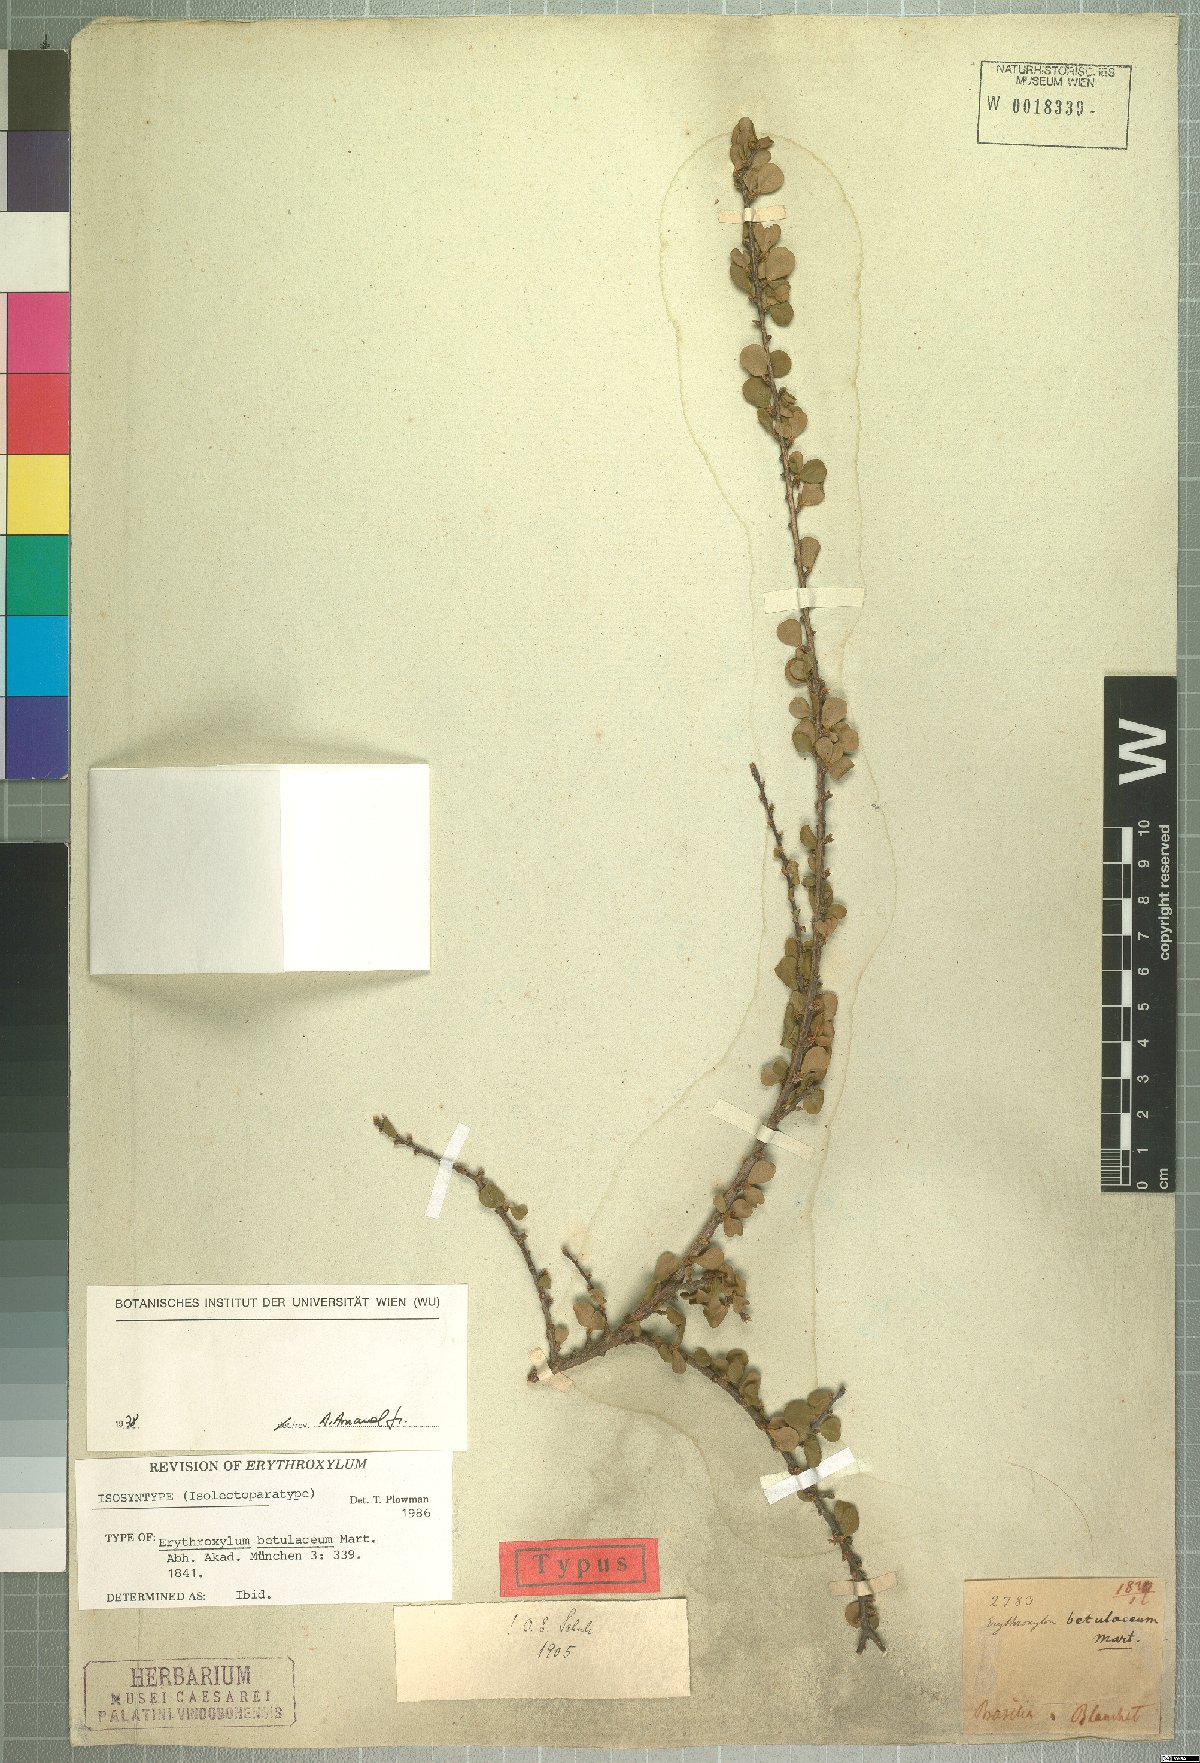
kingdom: Plantae
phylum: Tracheophyta
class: Magnoliopsida
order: Malpighiales
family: Erythroxylaceae
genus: Erythroxylum
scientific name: Erythroxylum betulaceum
